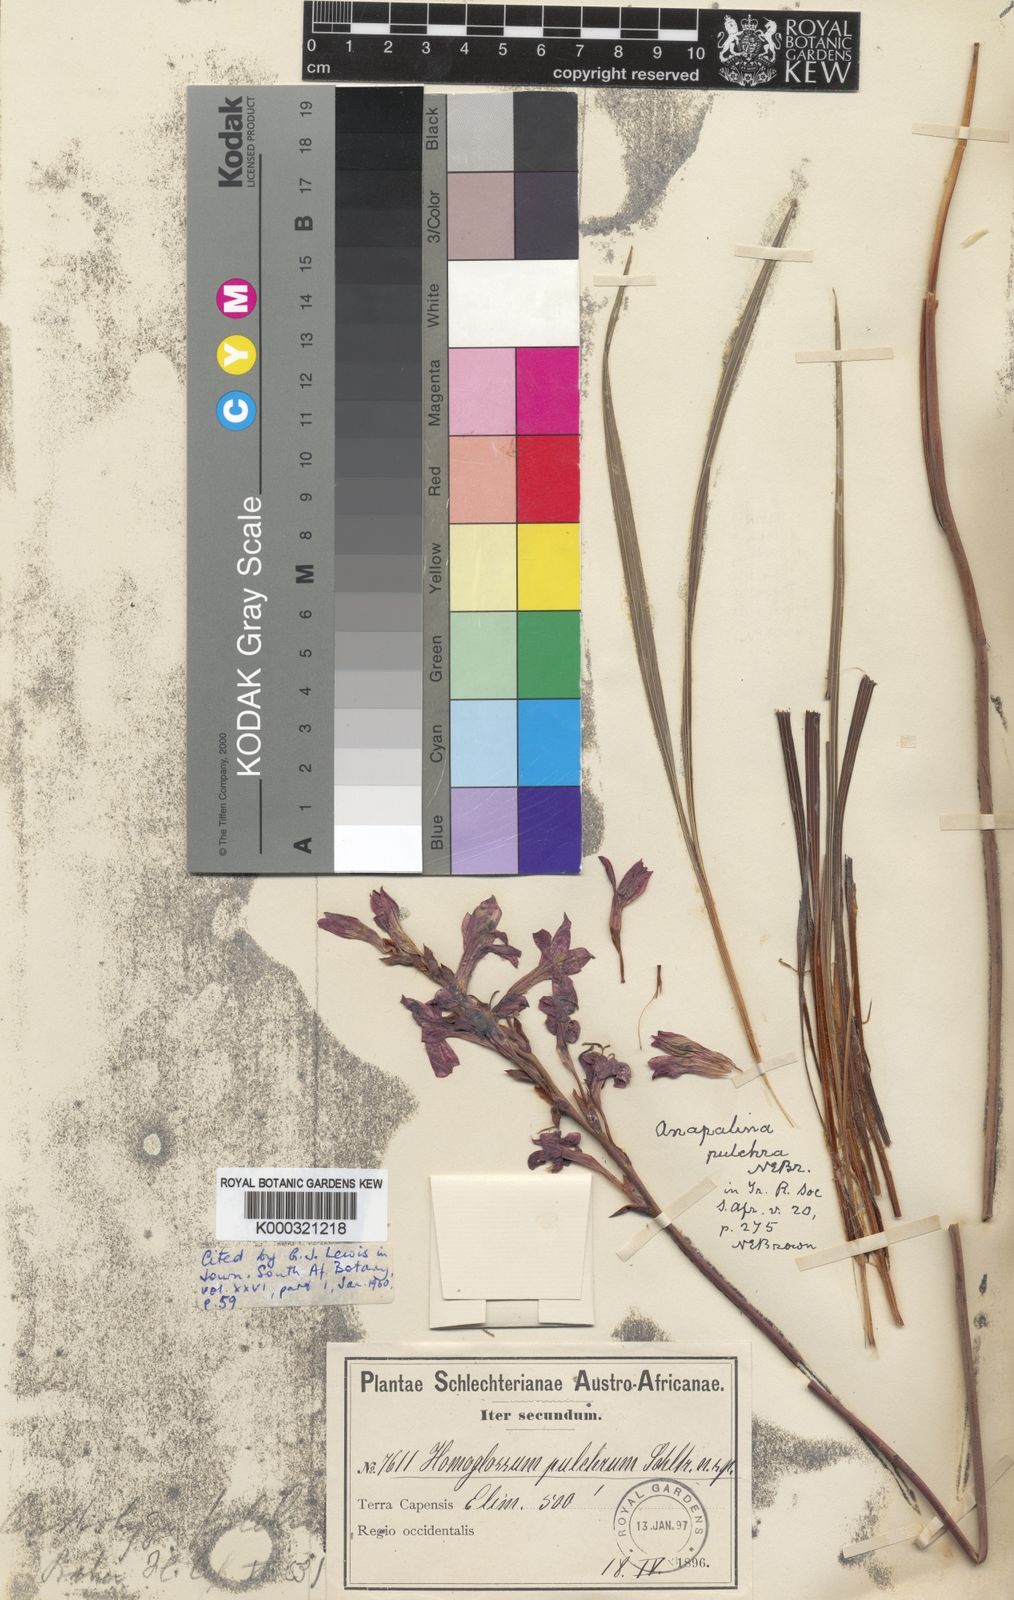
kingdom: Plantae
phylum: Tracheophyta
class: Liliopsida
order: Asparagales
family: Iridaceae
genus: Tritoniopsis
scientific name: Tritoniopsis pulchra
